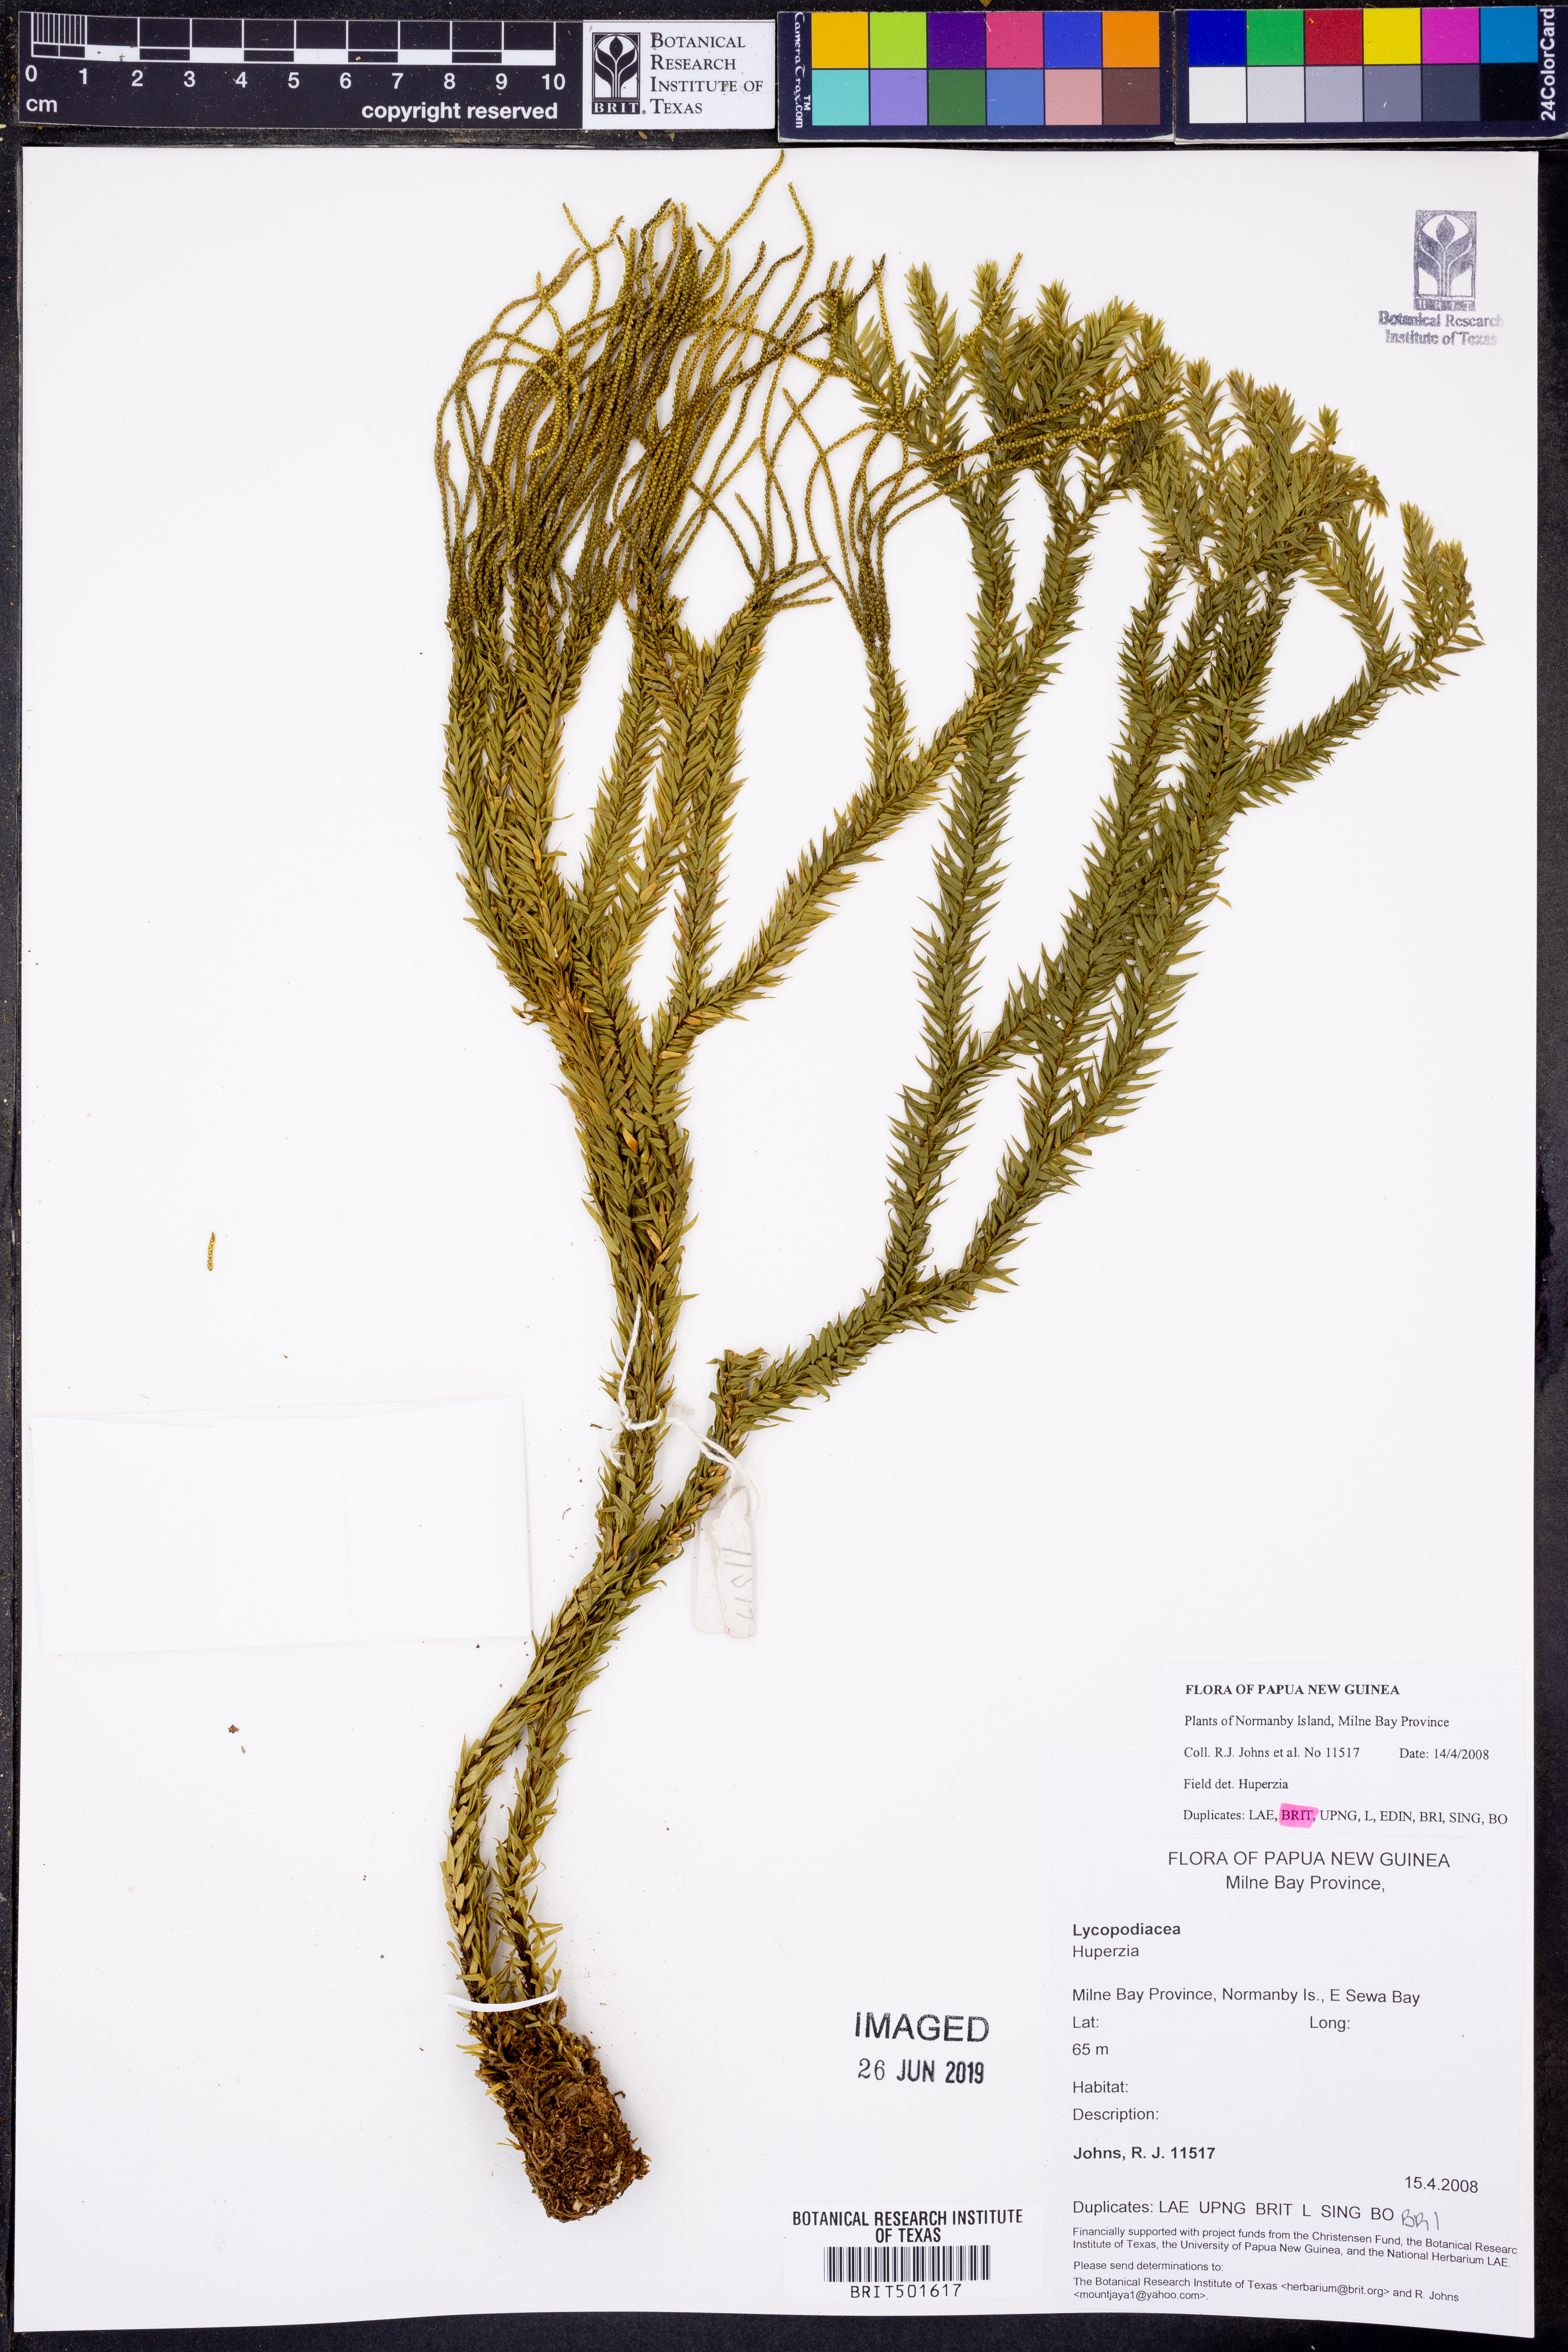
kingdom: Plantae
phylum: Tracheophyta
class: Lycopodiopsida
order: Lycopodiales
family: Lycopodiaceae
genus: Huperzia
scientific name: Huperzia
